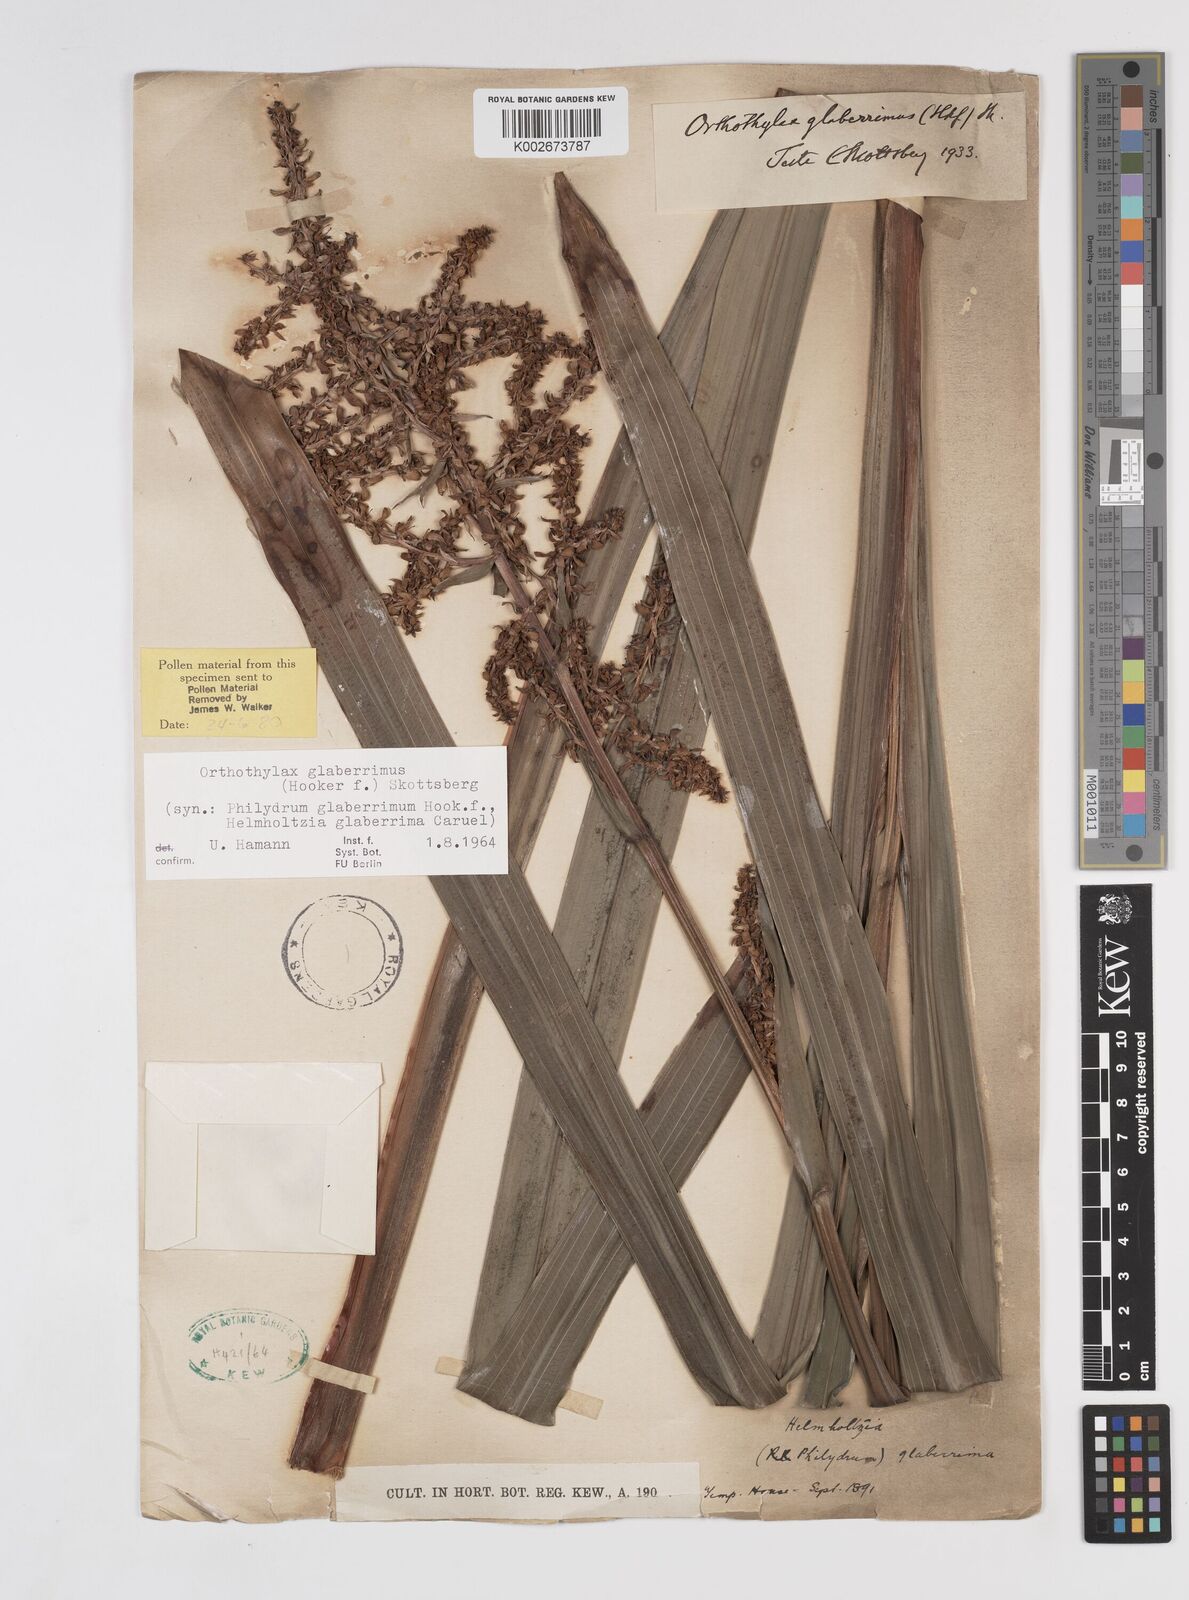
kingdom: Plantae
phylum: Tracheophyta
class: Liliopsida
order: Commelinales
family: Philydraceae
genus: Helmholtzia
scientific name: Helmholtzia glaberrima
